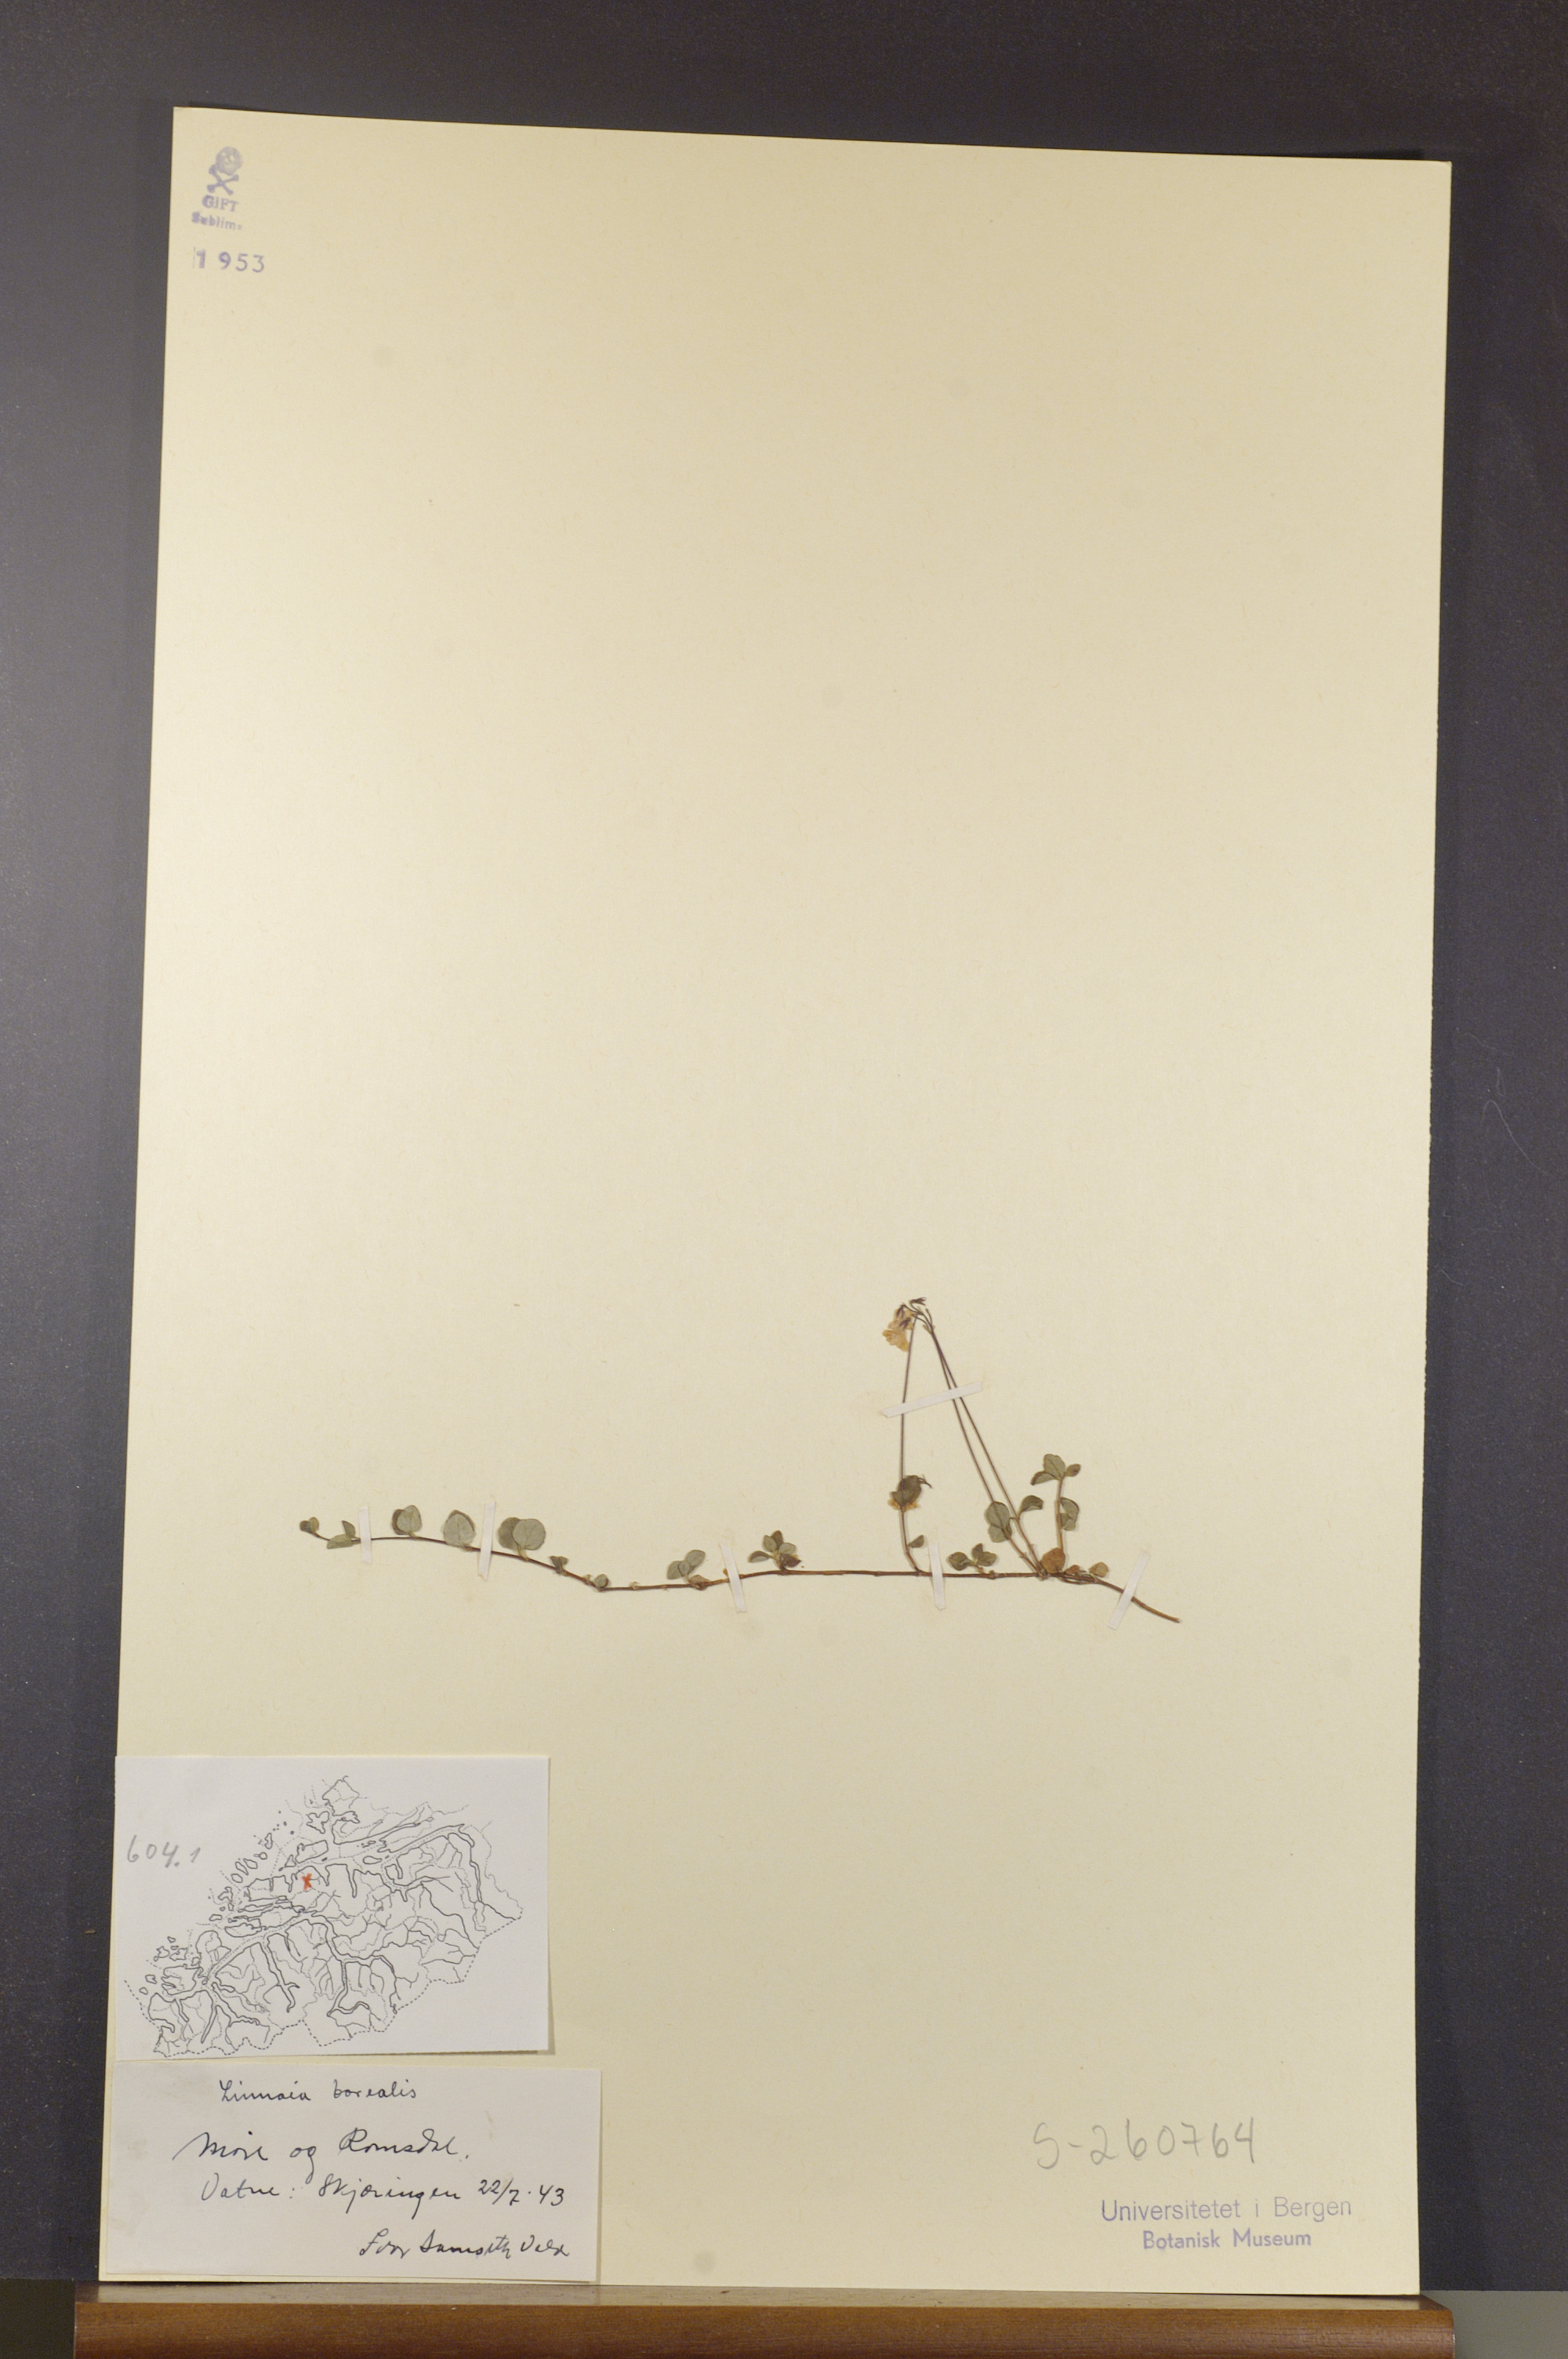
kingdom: Plantae
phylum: Tracheophyta
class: Magnoliopsida
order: Dipsacales
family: Caprifoliaceae
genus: Linnaea
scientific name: Linnaea borealis
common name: Twinflower
